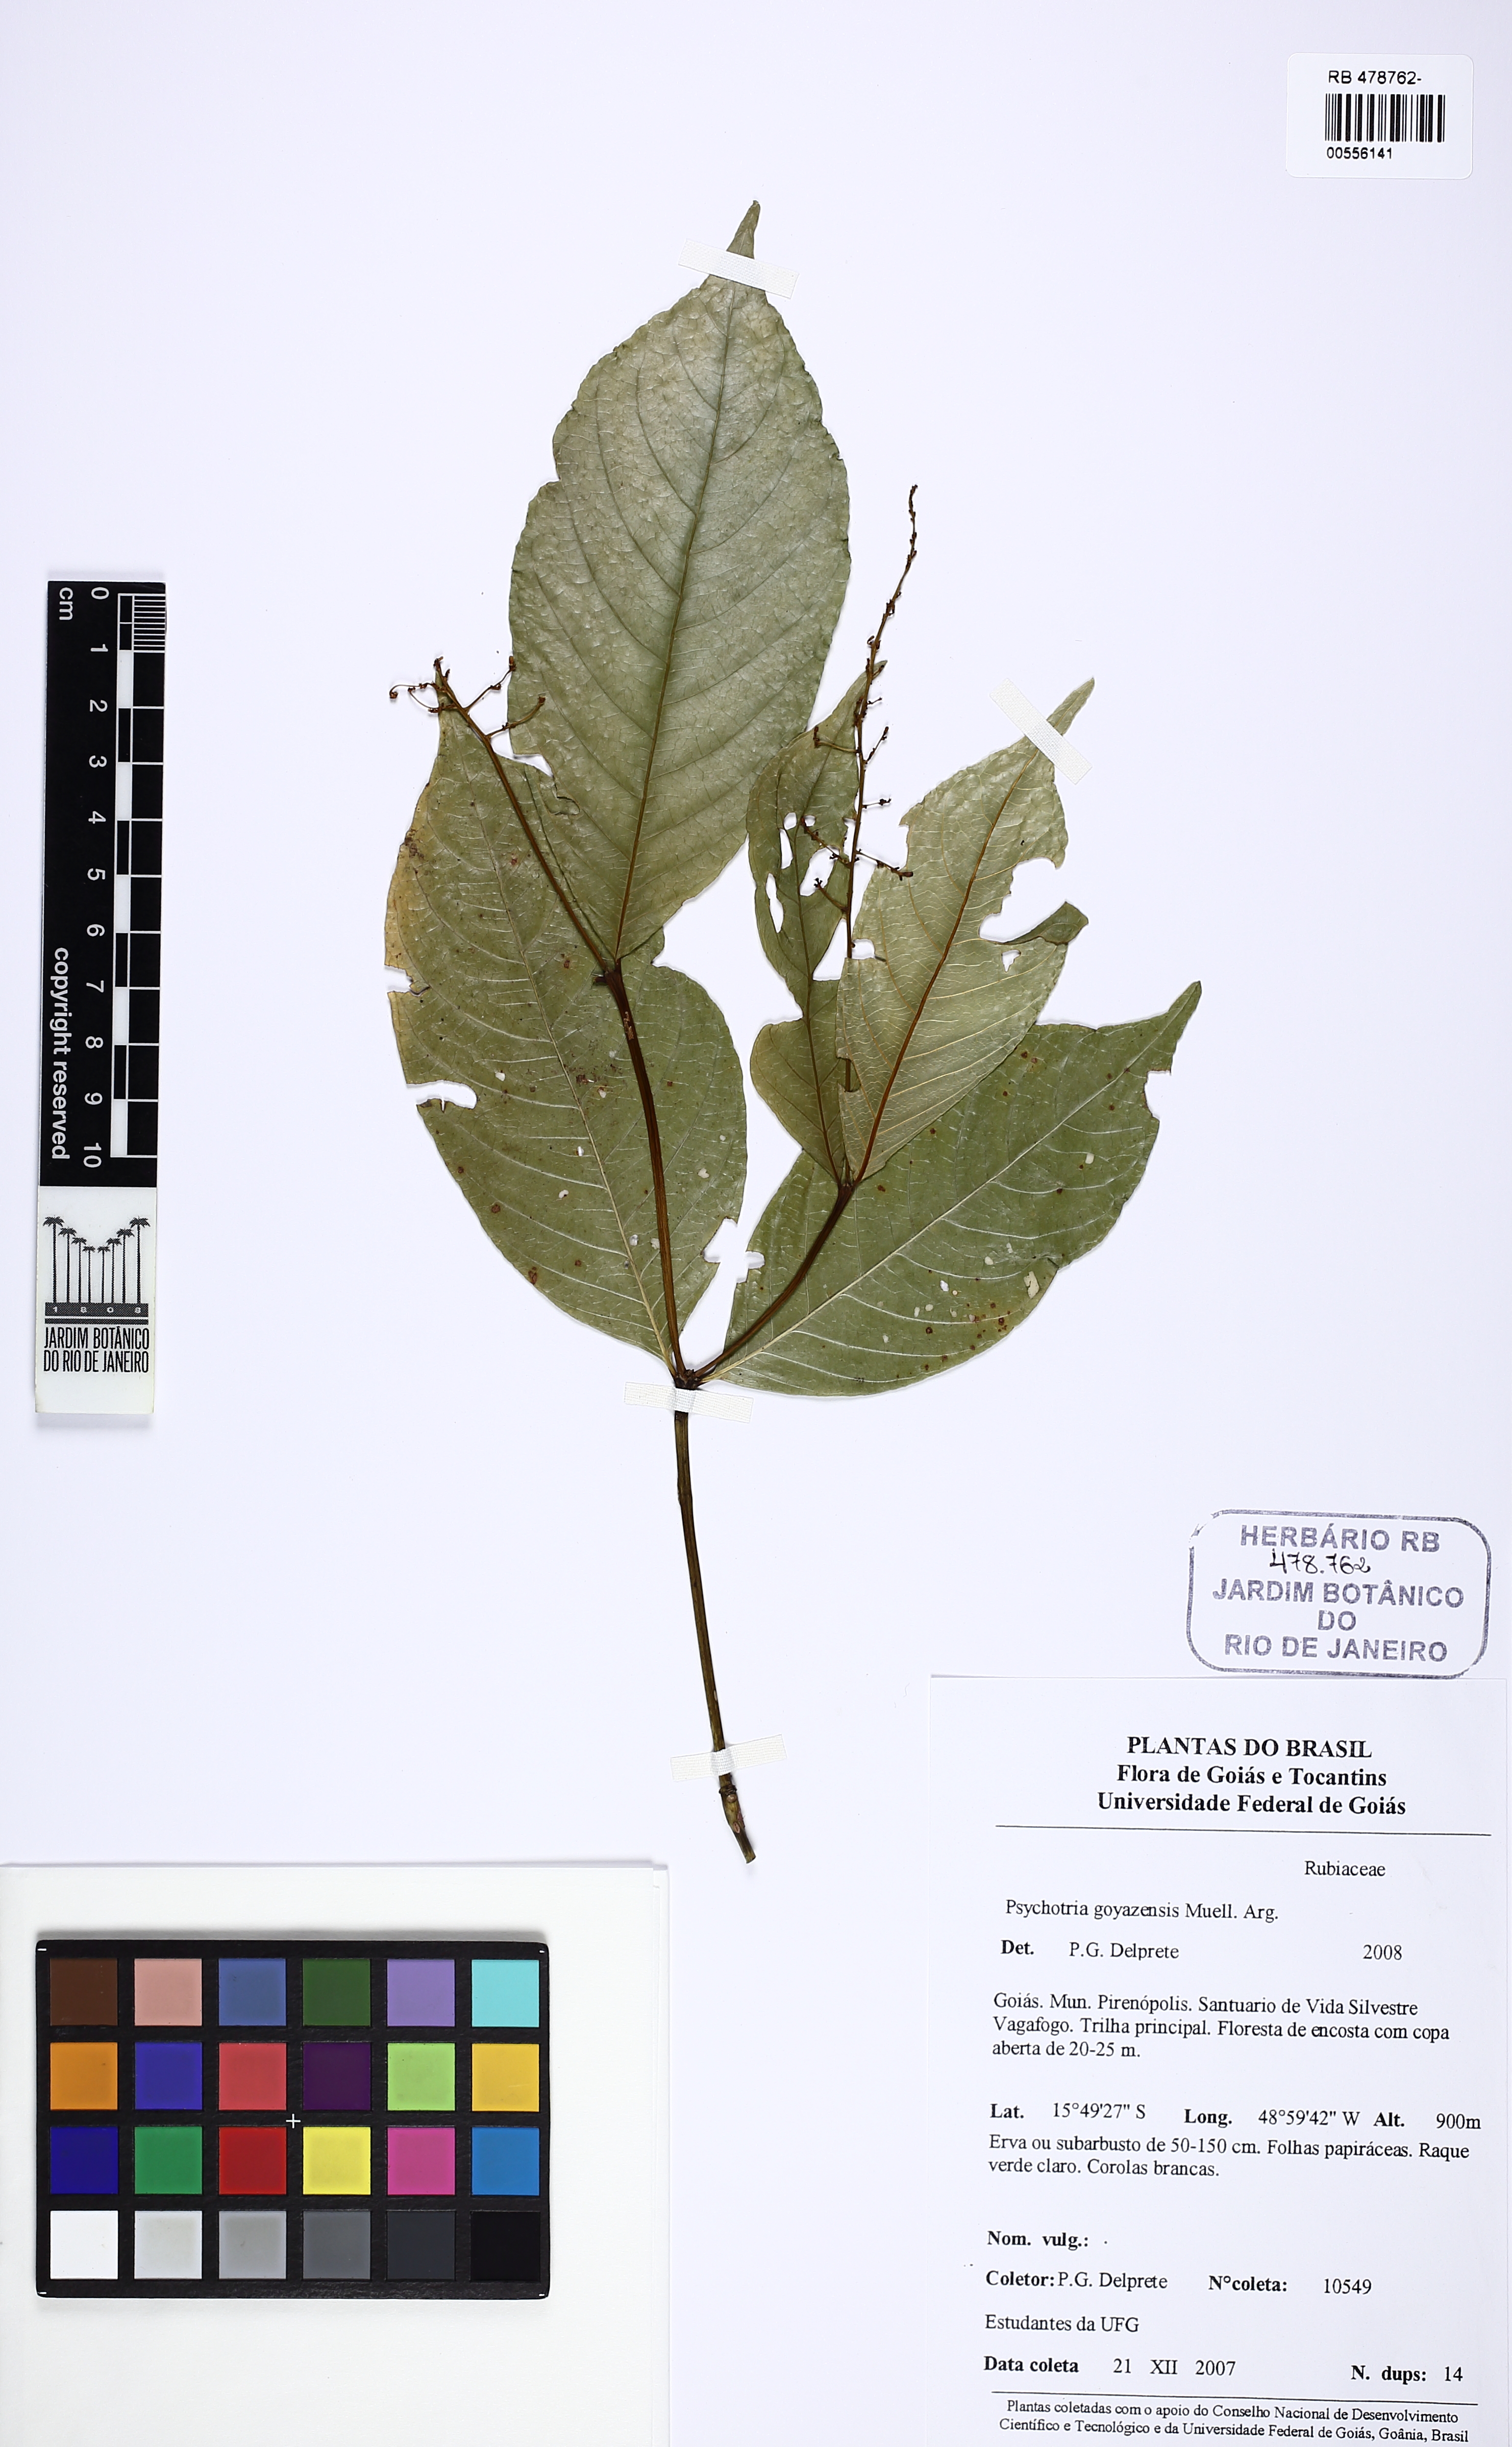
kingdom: Plantae
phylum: Tracheophyta
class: Magnoliopsida
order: Gentianales
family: Rubiaceae
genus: Palicourea
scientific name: Palicourea goyazensis
